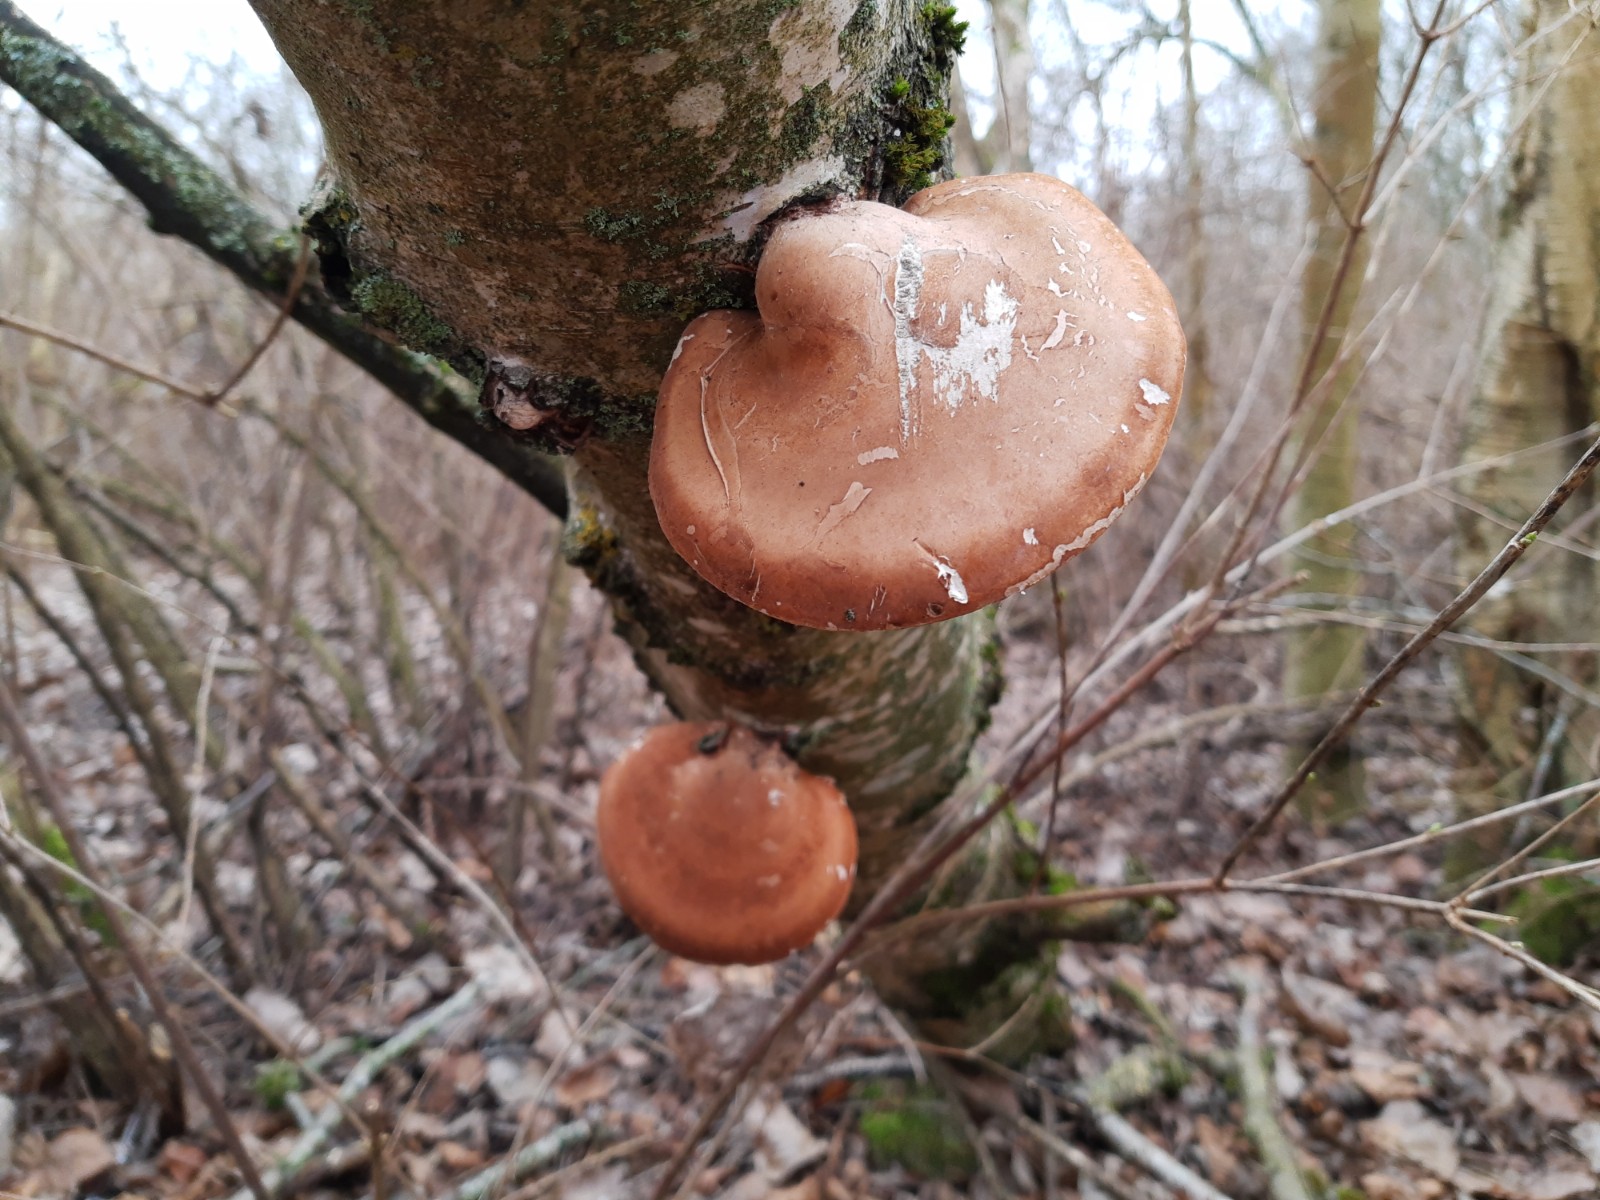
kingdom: Fungi
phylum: Basidiomycota
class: Agaricomycetes
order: Polyporales
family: Fomitopsidaceae
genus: Fomitopsis
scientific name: Fomitopsis betulina
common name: birkeporesvamp
